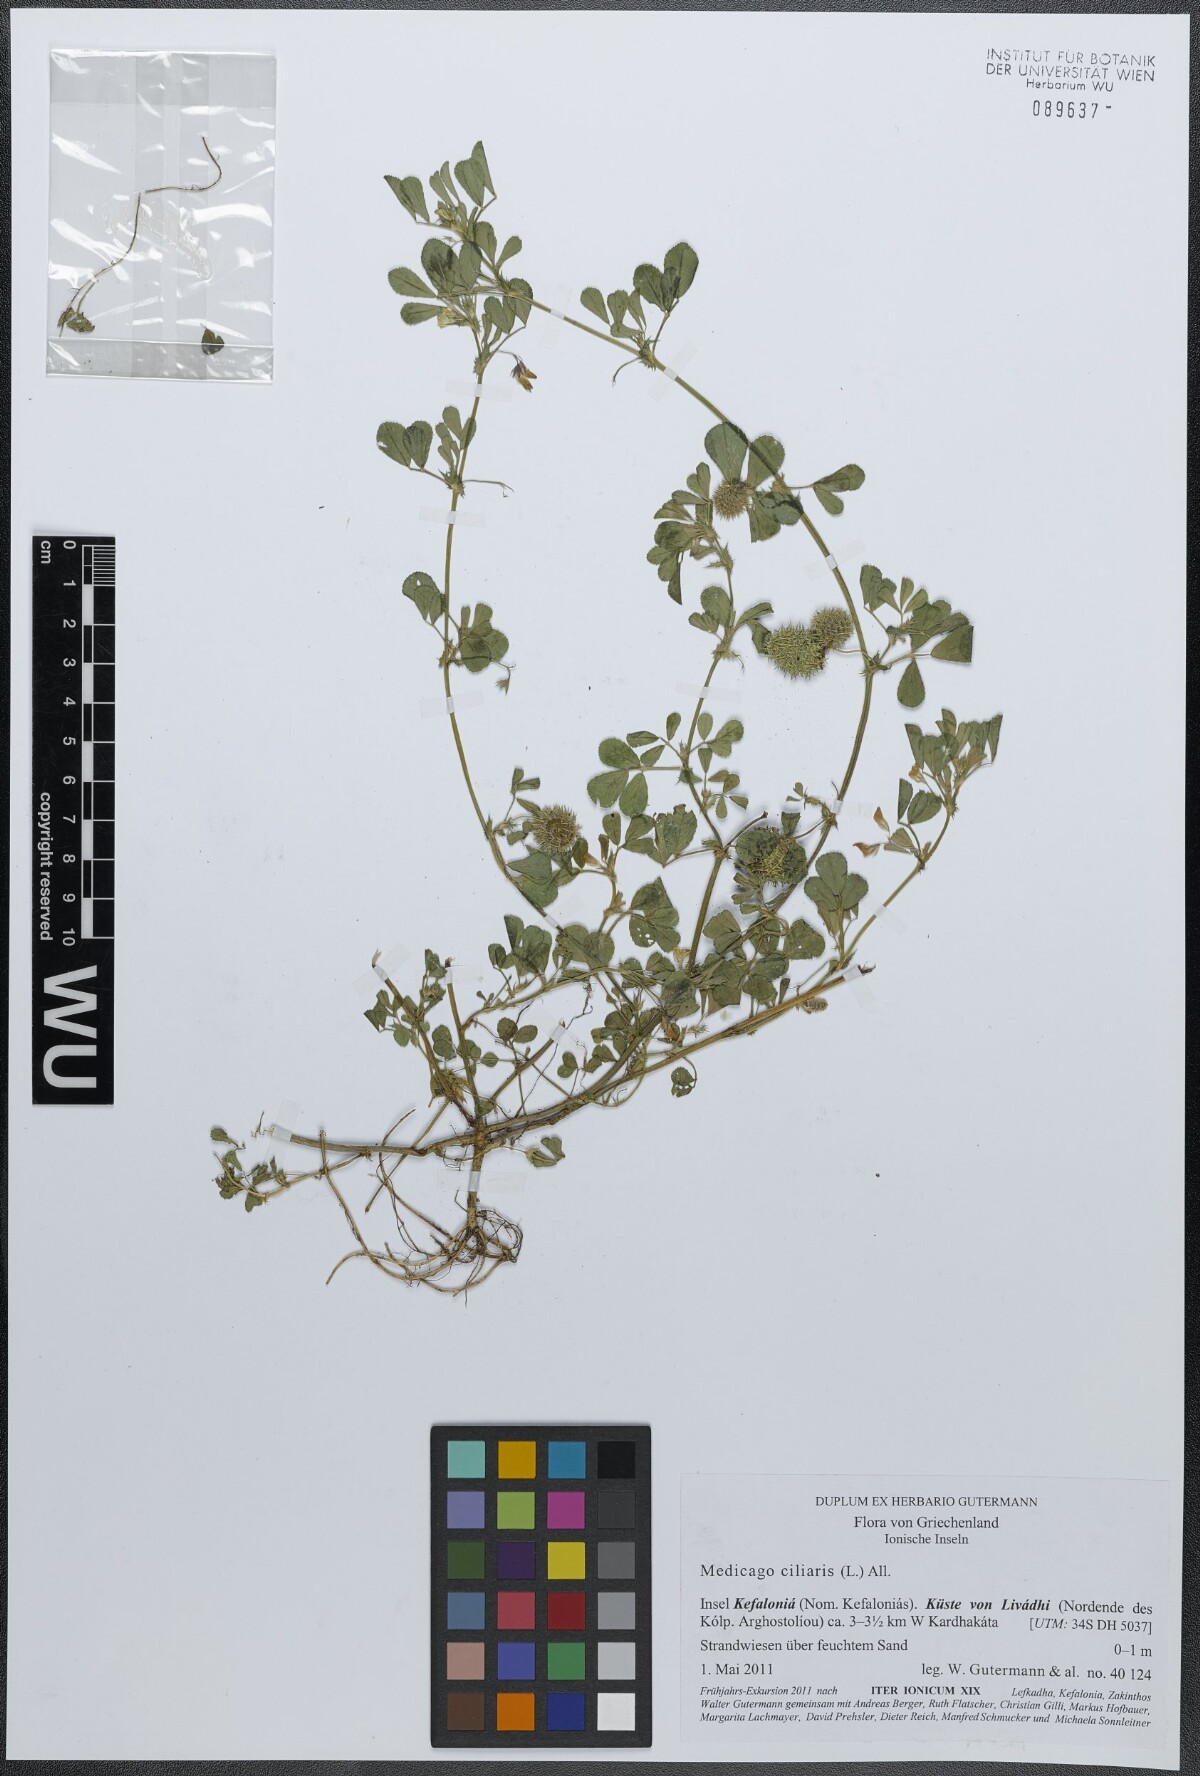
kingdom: Plantae
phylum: Tracheophyta
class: Magnoliopsida
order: Fabales
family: Fabaceae
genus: Medicago
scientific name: Medicago ciliaris
